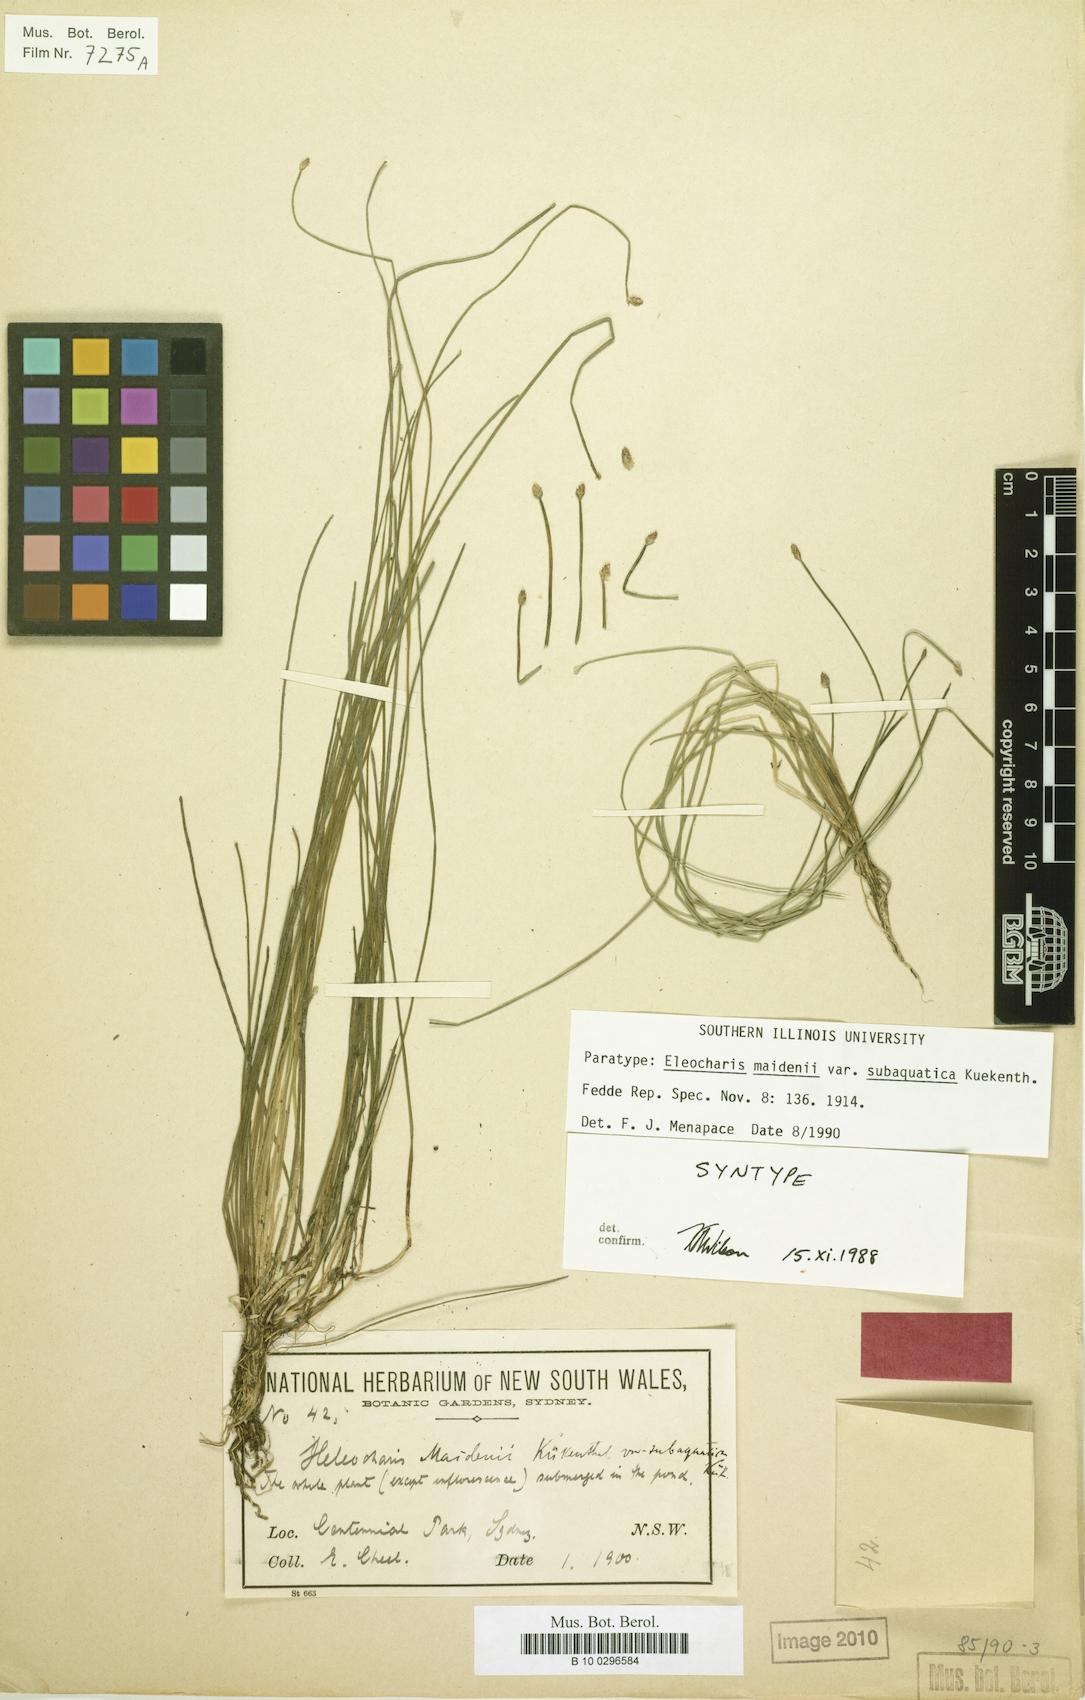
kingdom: Plantae
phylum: Tracheophyta
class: Liliopsida
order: Poales
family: Cyperaceae
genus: Eleocharis
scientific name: Eleocharis maidenii
